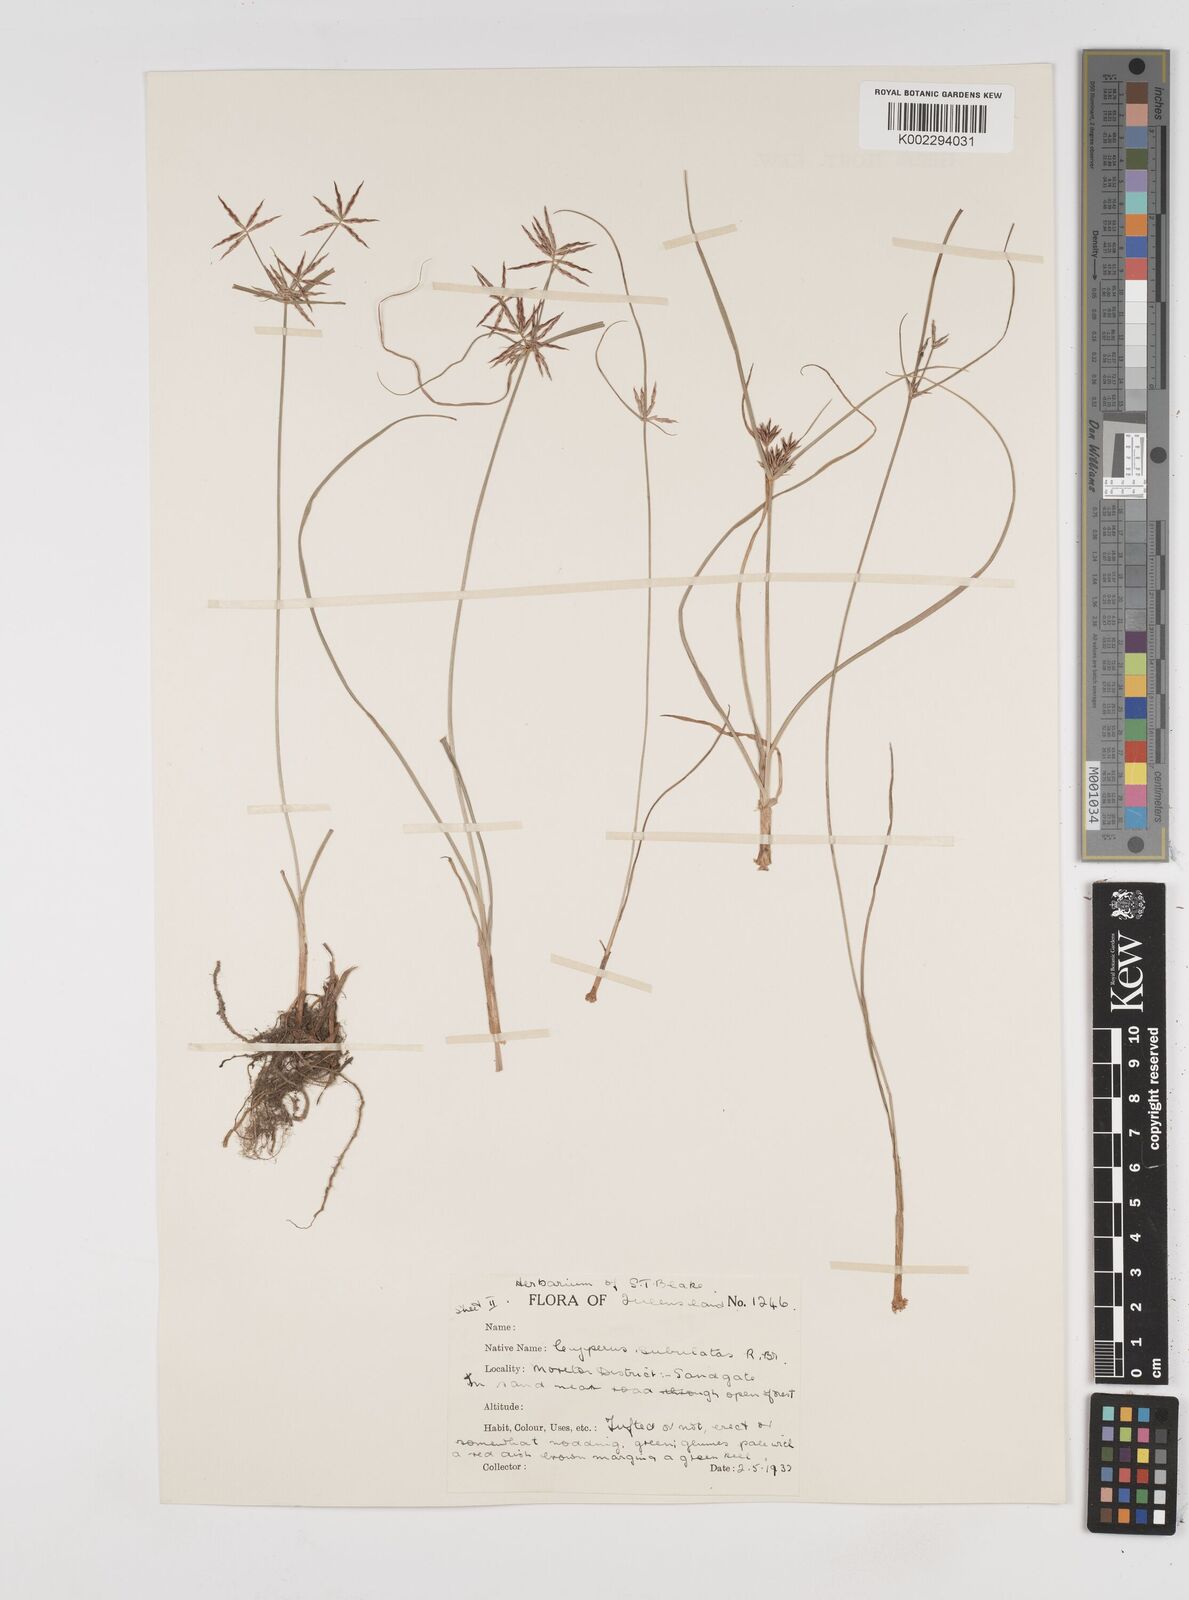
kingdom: Plantae
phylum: Tracheophyta
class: Liliopsida
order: Poales
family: Cyperaceae
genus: Cyperus
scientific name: Cyperus subulatus
